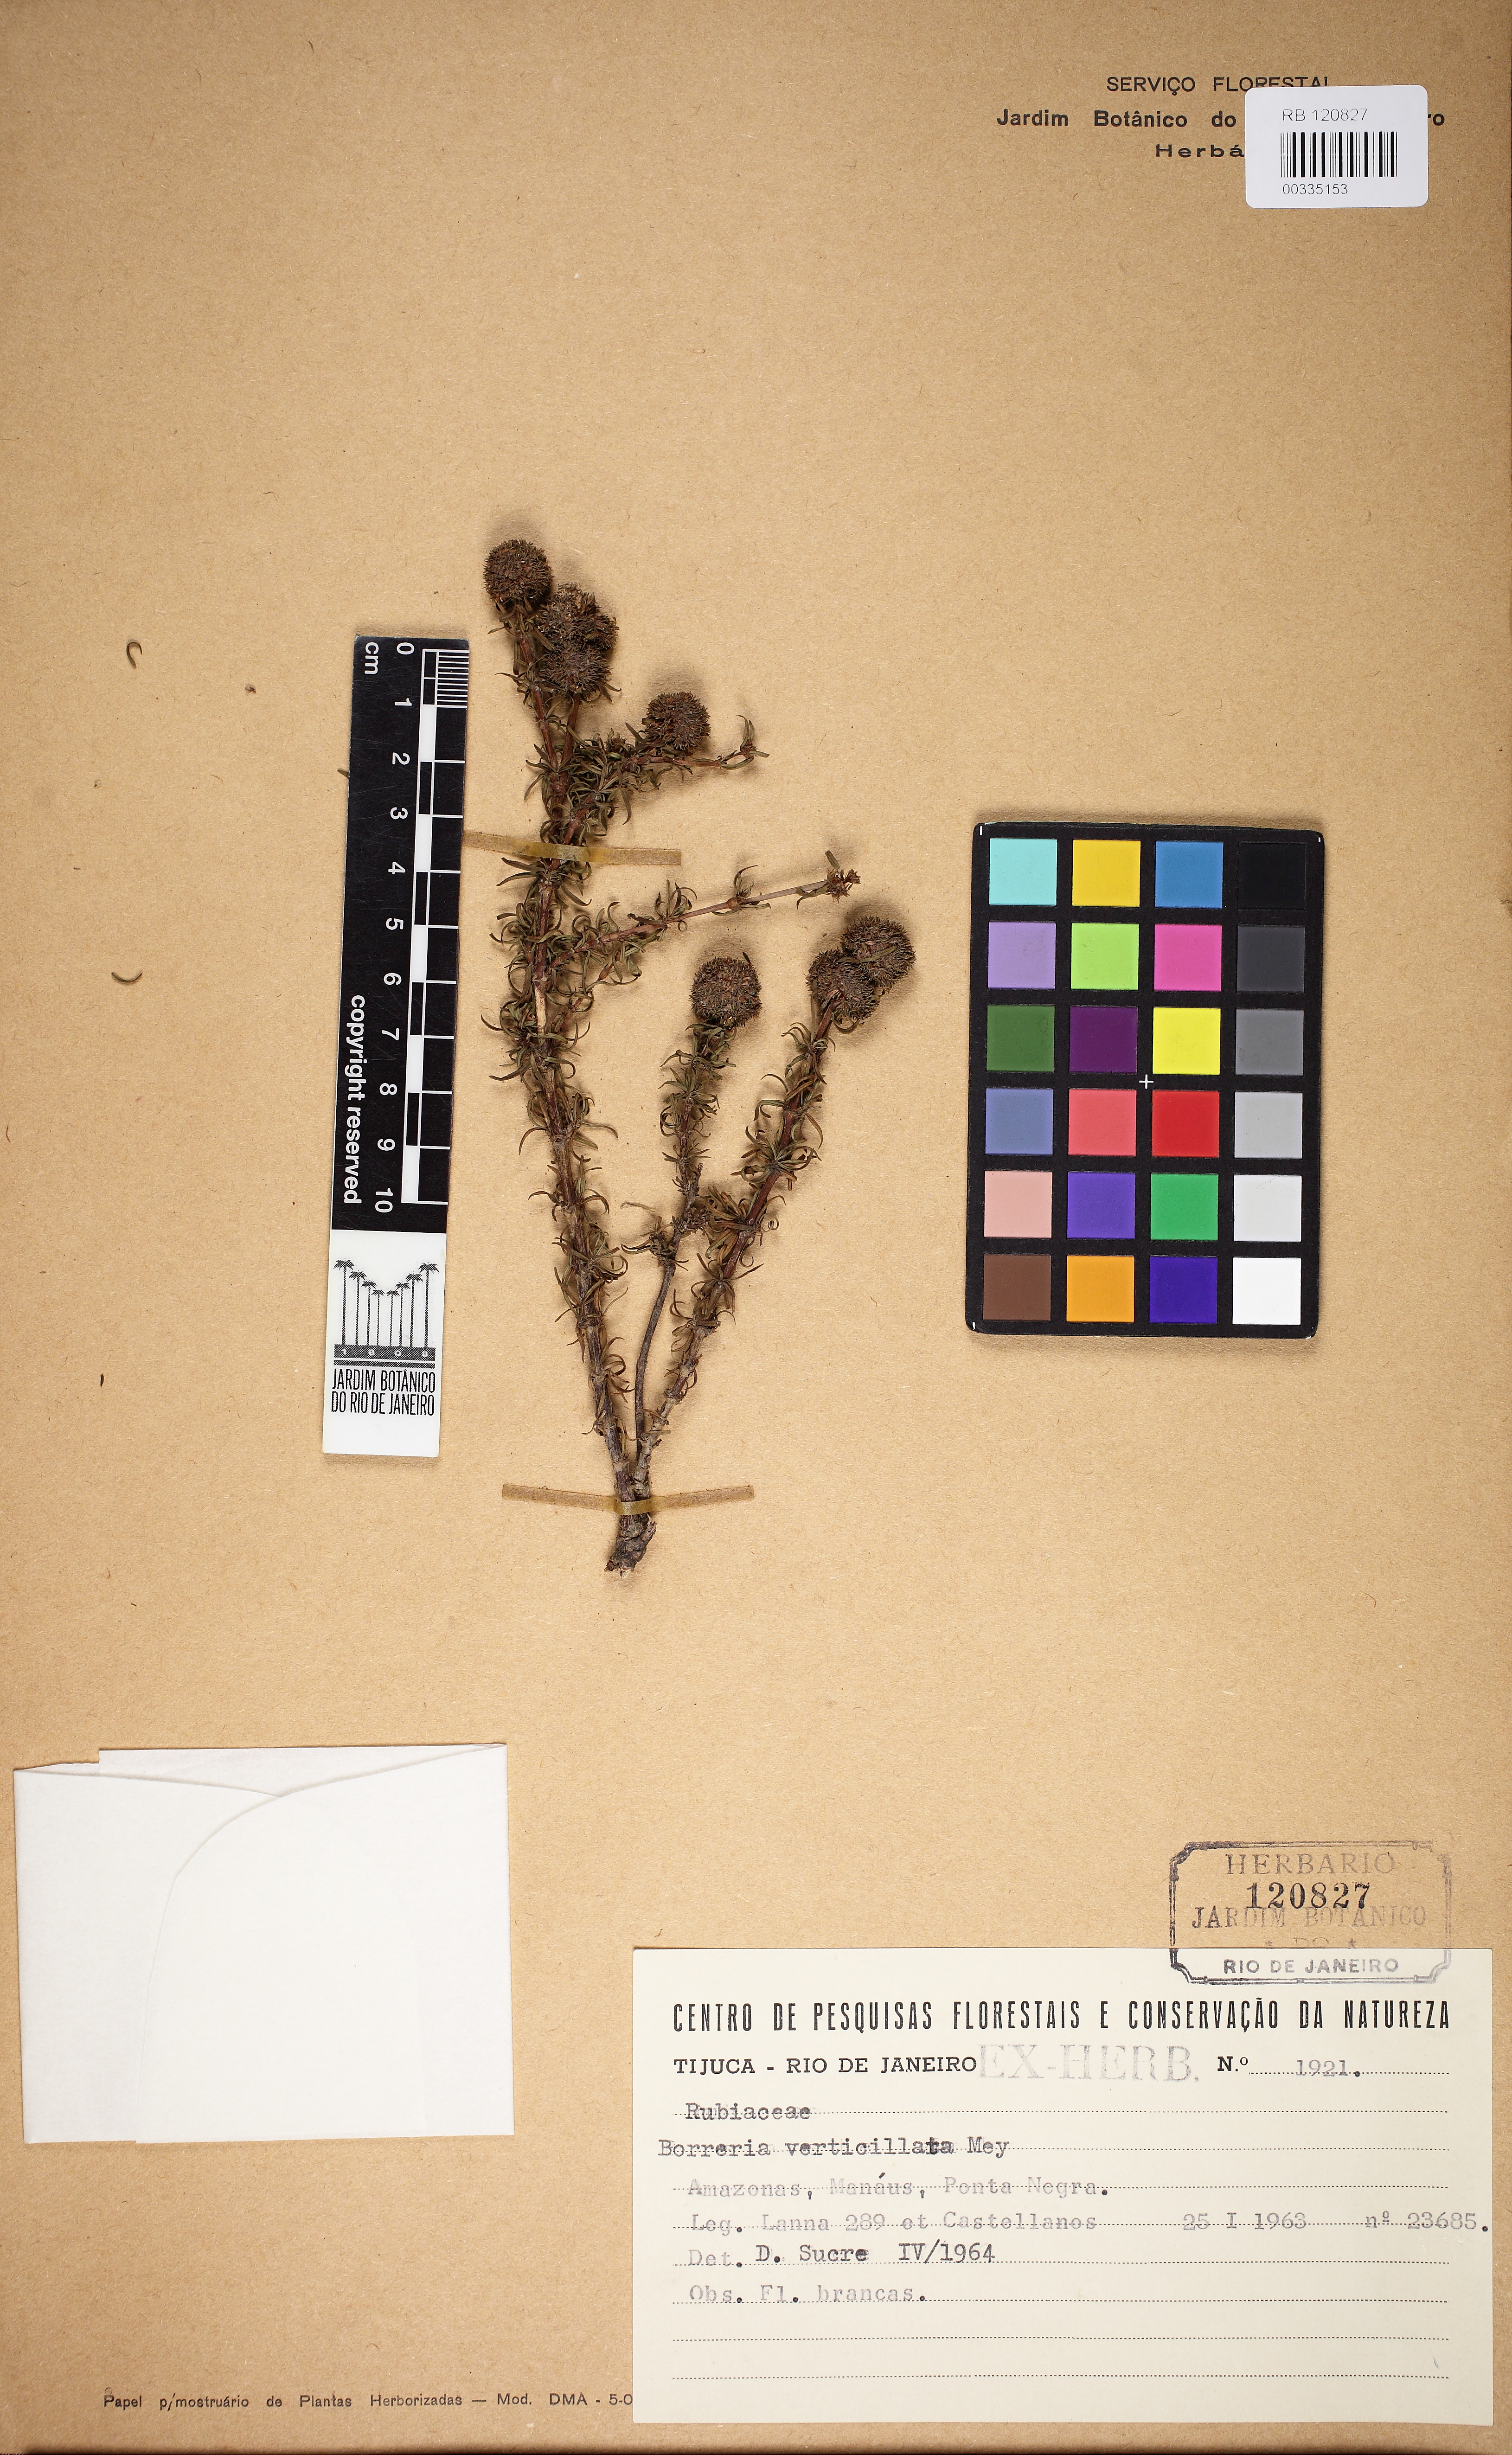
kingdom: Plantae
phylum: Tracheophyta
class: Magnoliopsida
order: Gentianales
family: Rubiaceae
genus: Spermacoce
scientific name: Spermacoce verticillata
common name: Shrubby false buttonweed
